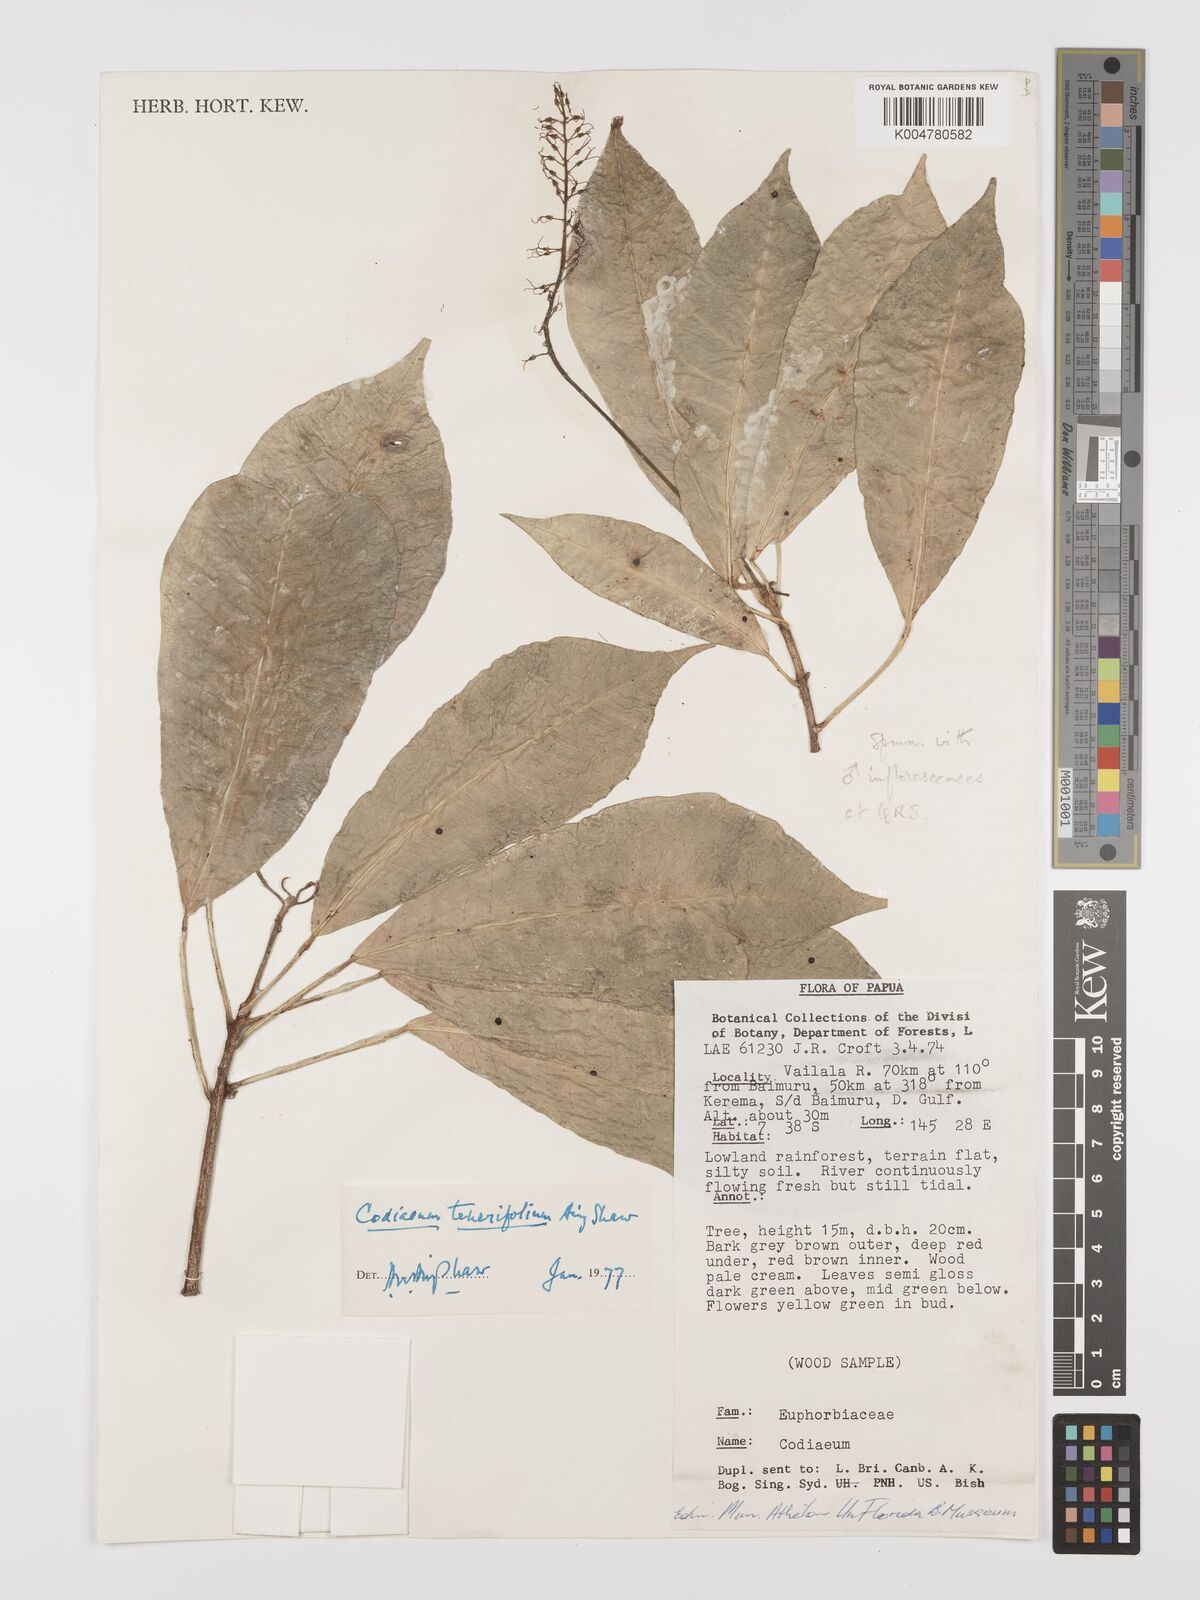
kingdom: Plantae
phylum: Tracheophyta
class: Magnoliopsida
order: Malpighiales
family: Euphorbiaceae
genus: Codiaeum
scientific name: Codiaeum tenerifolium
